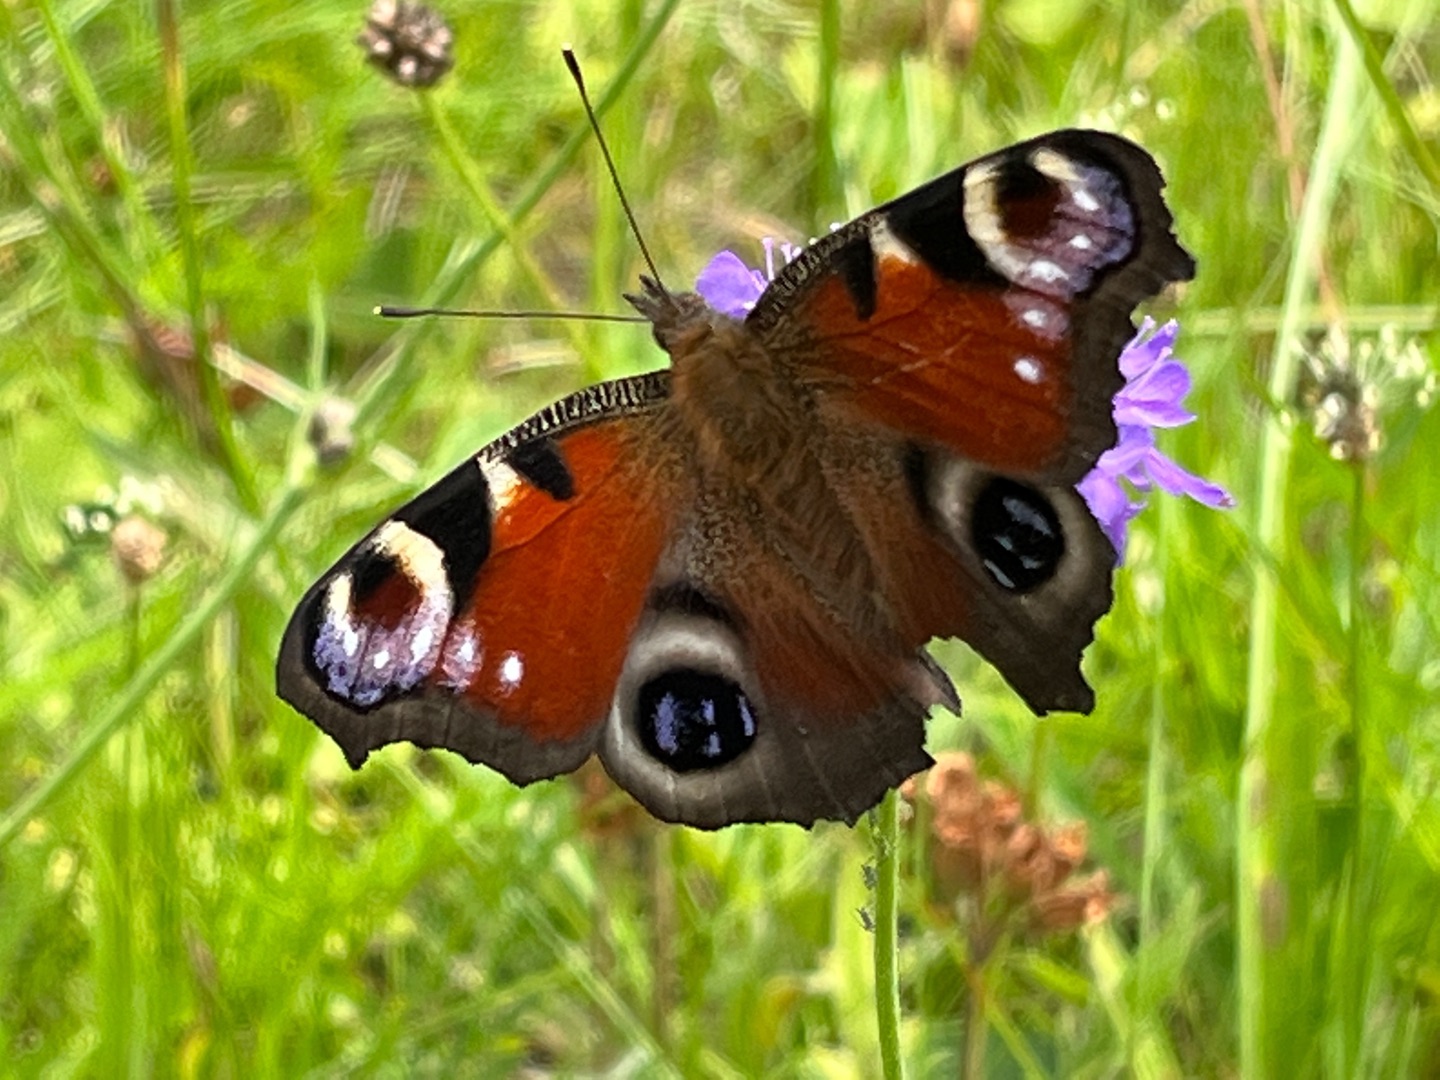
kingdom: Animalia
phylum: Arthropoda
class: Insecta
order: Lepidoptera
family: Nymphalidae
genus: Aglais
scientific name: Aglais io
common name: Dagpåfugleøje
